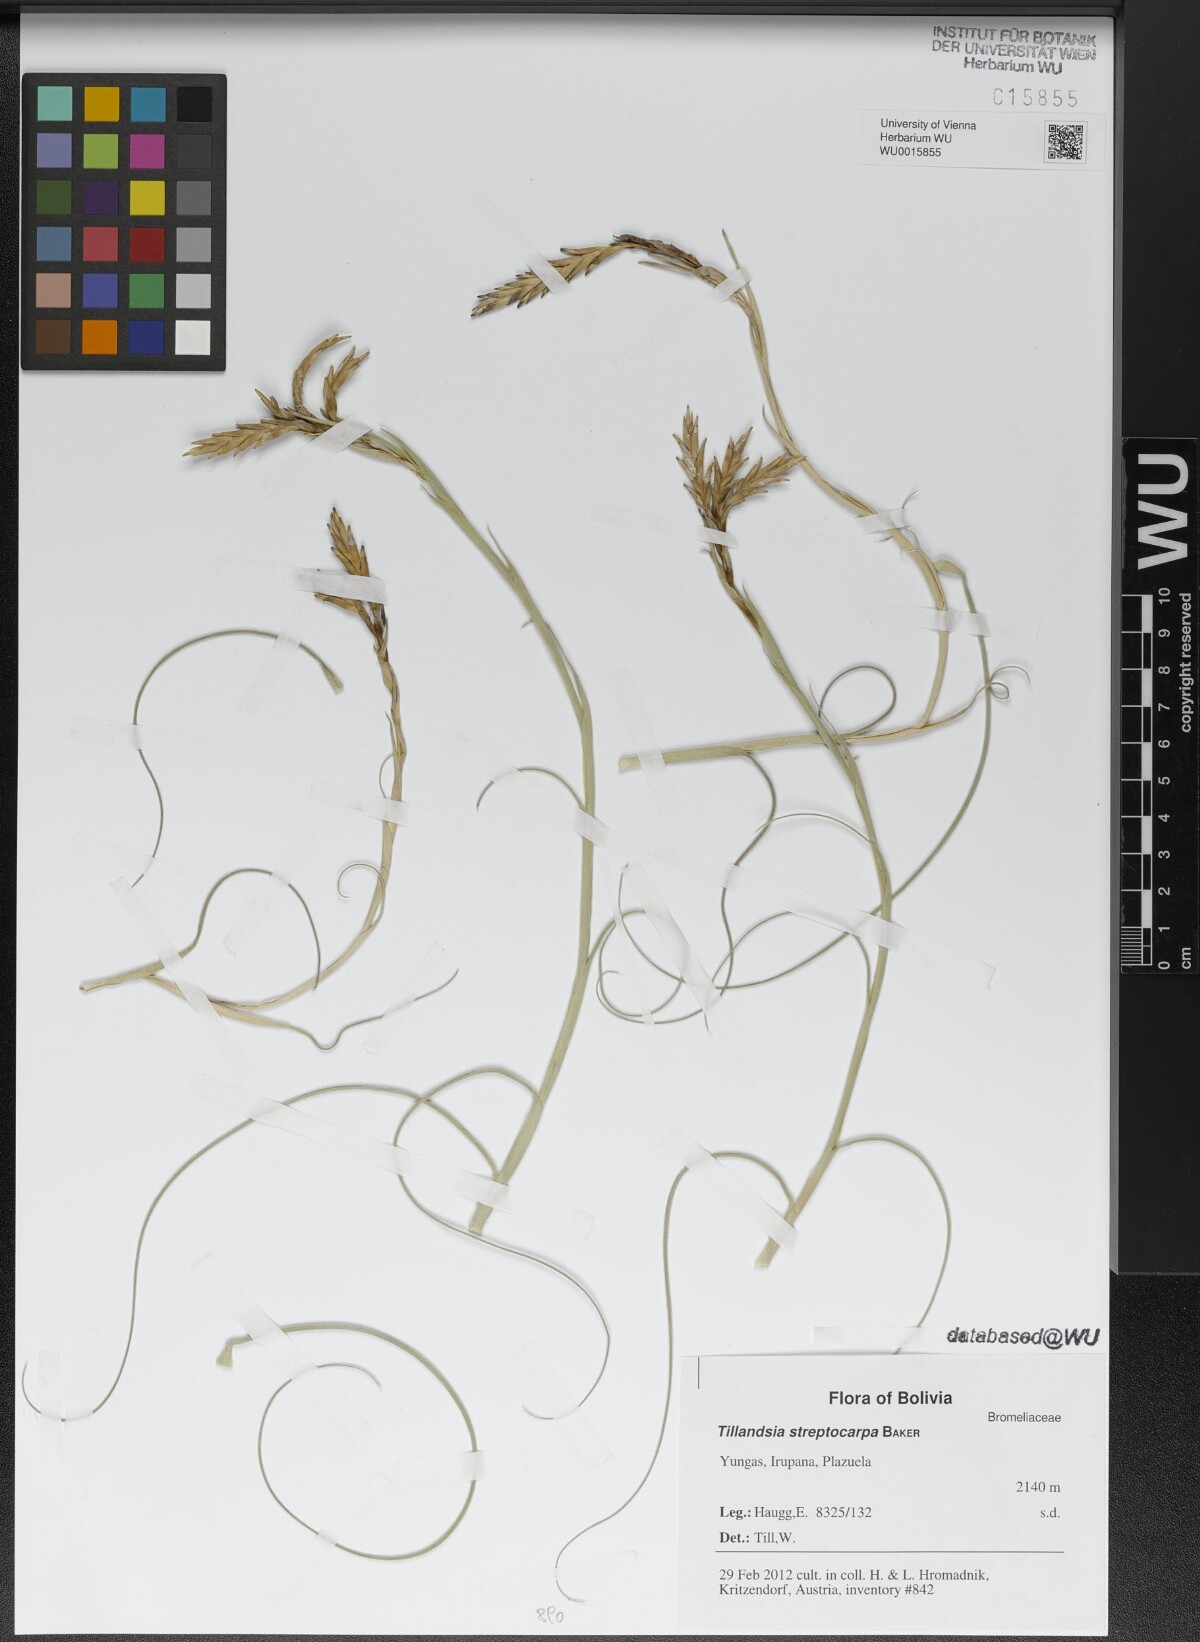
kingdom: Plantae
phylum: Tracheophyta
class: Liliopsida
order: Poales
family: Bromeliaceae
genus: Tillandsia
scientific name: Tillandsia streptocarpa
